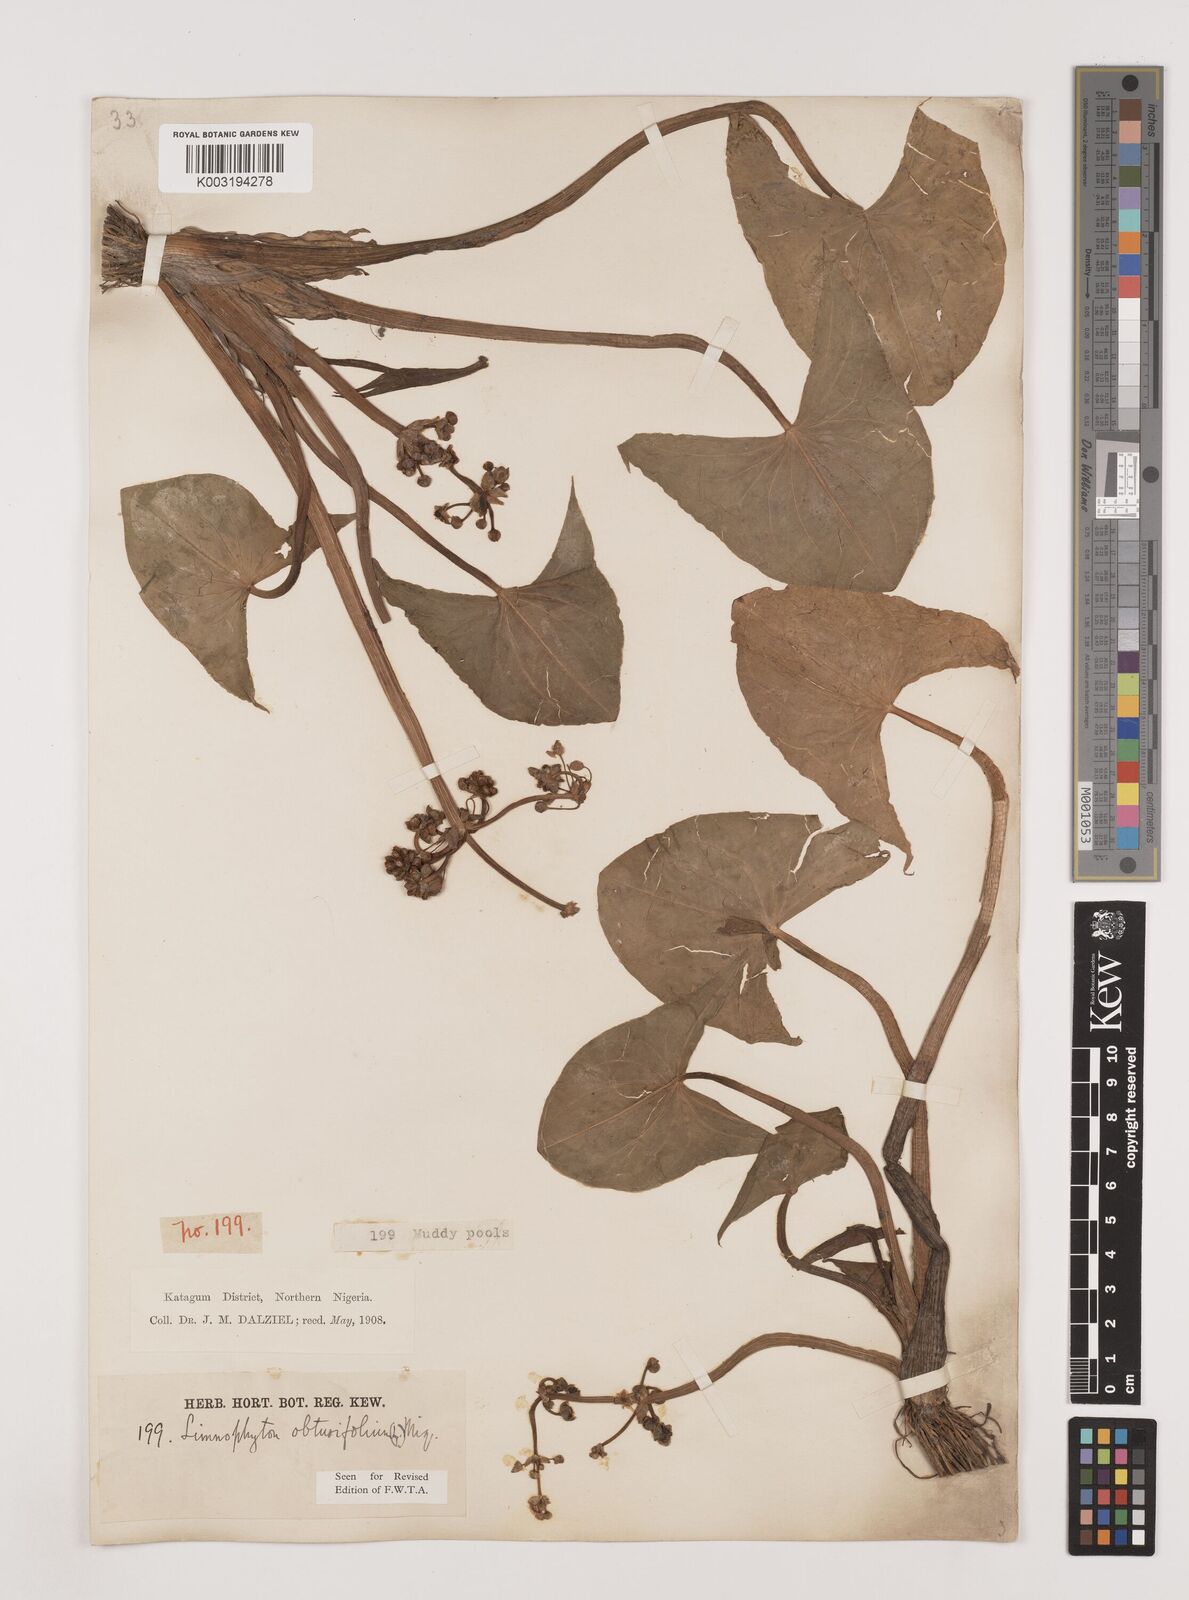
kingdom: Plantae
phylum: Tracheophyta
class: Liliopsida
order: Alismatales
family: Alismataceae
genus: Limnophyton
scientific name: Limnophyton obtusifolium
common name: Arrow head
